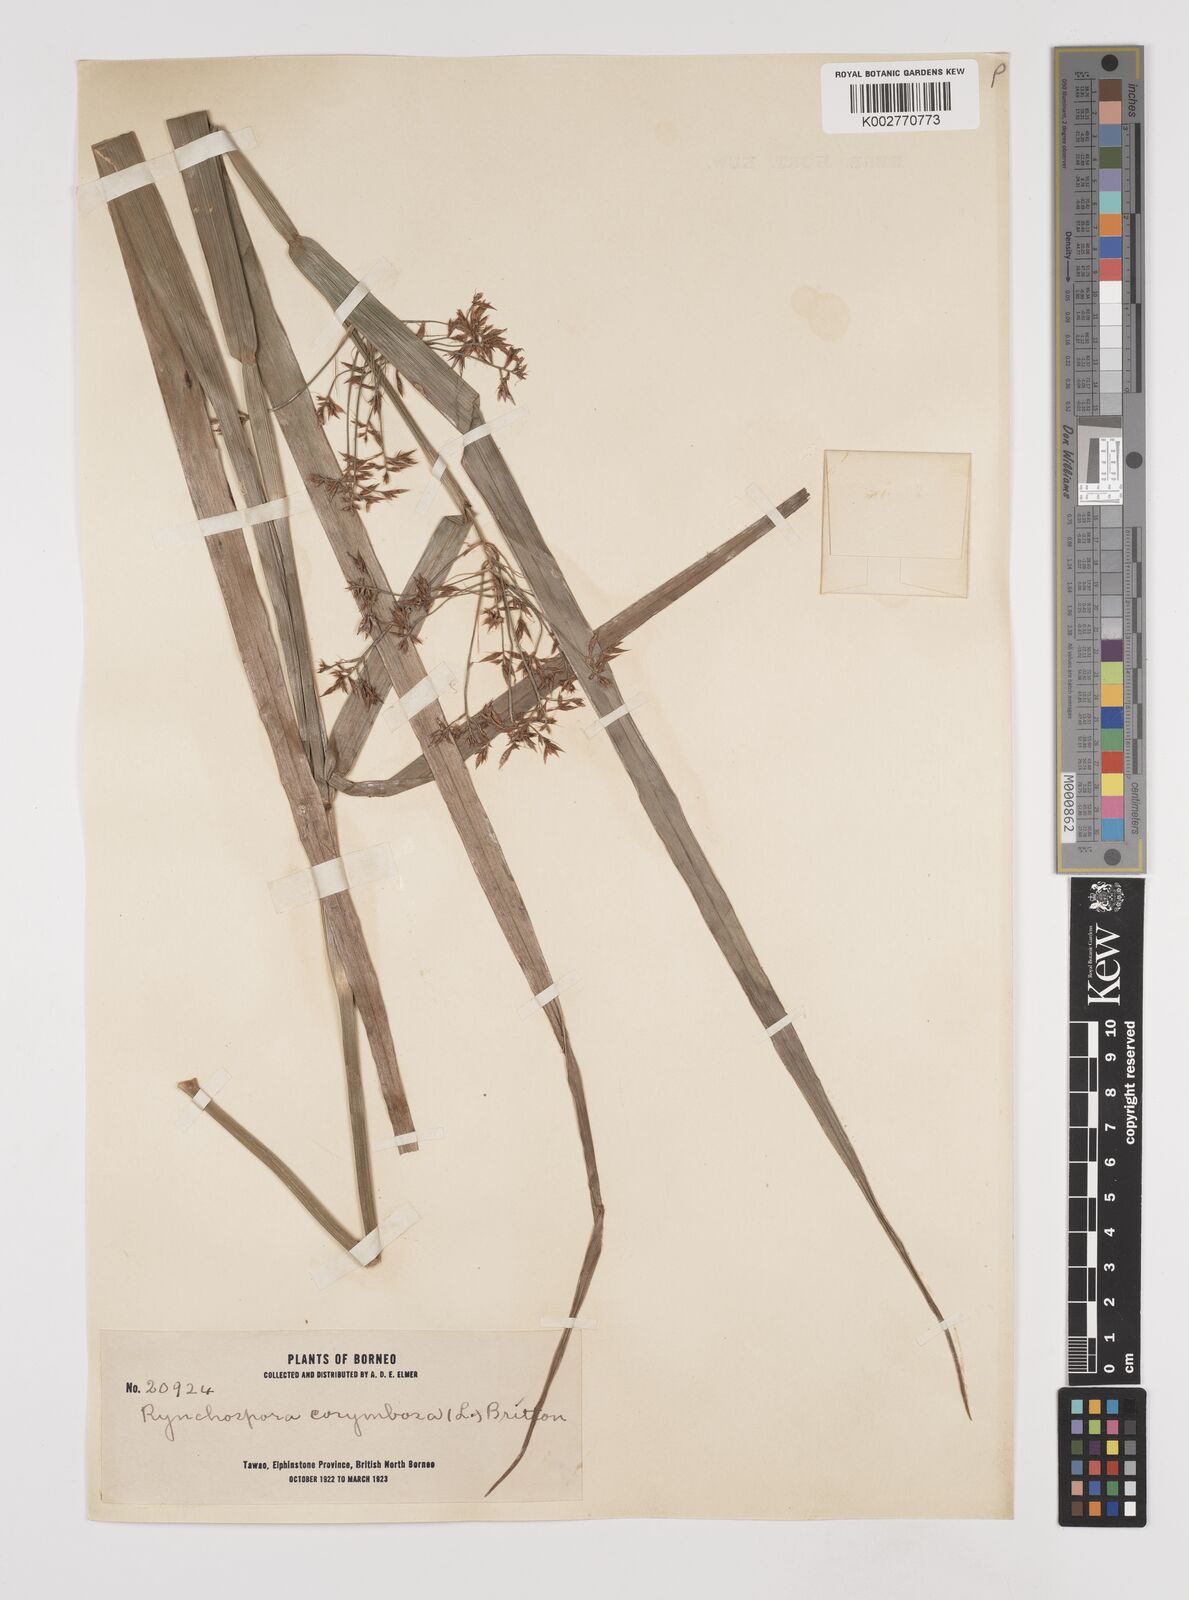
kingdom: Plantae
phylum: Tracheophyta
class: Liliopsida
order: Poales
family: Cyperaceae
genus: Rhynchospora
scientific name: Rhynchospora corymbosa
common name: Golden beak sedge
